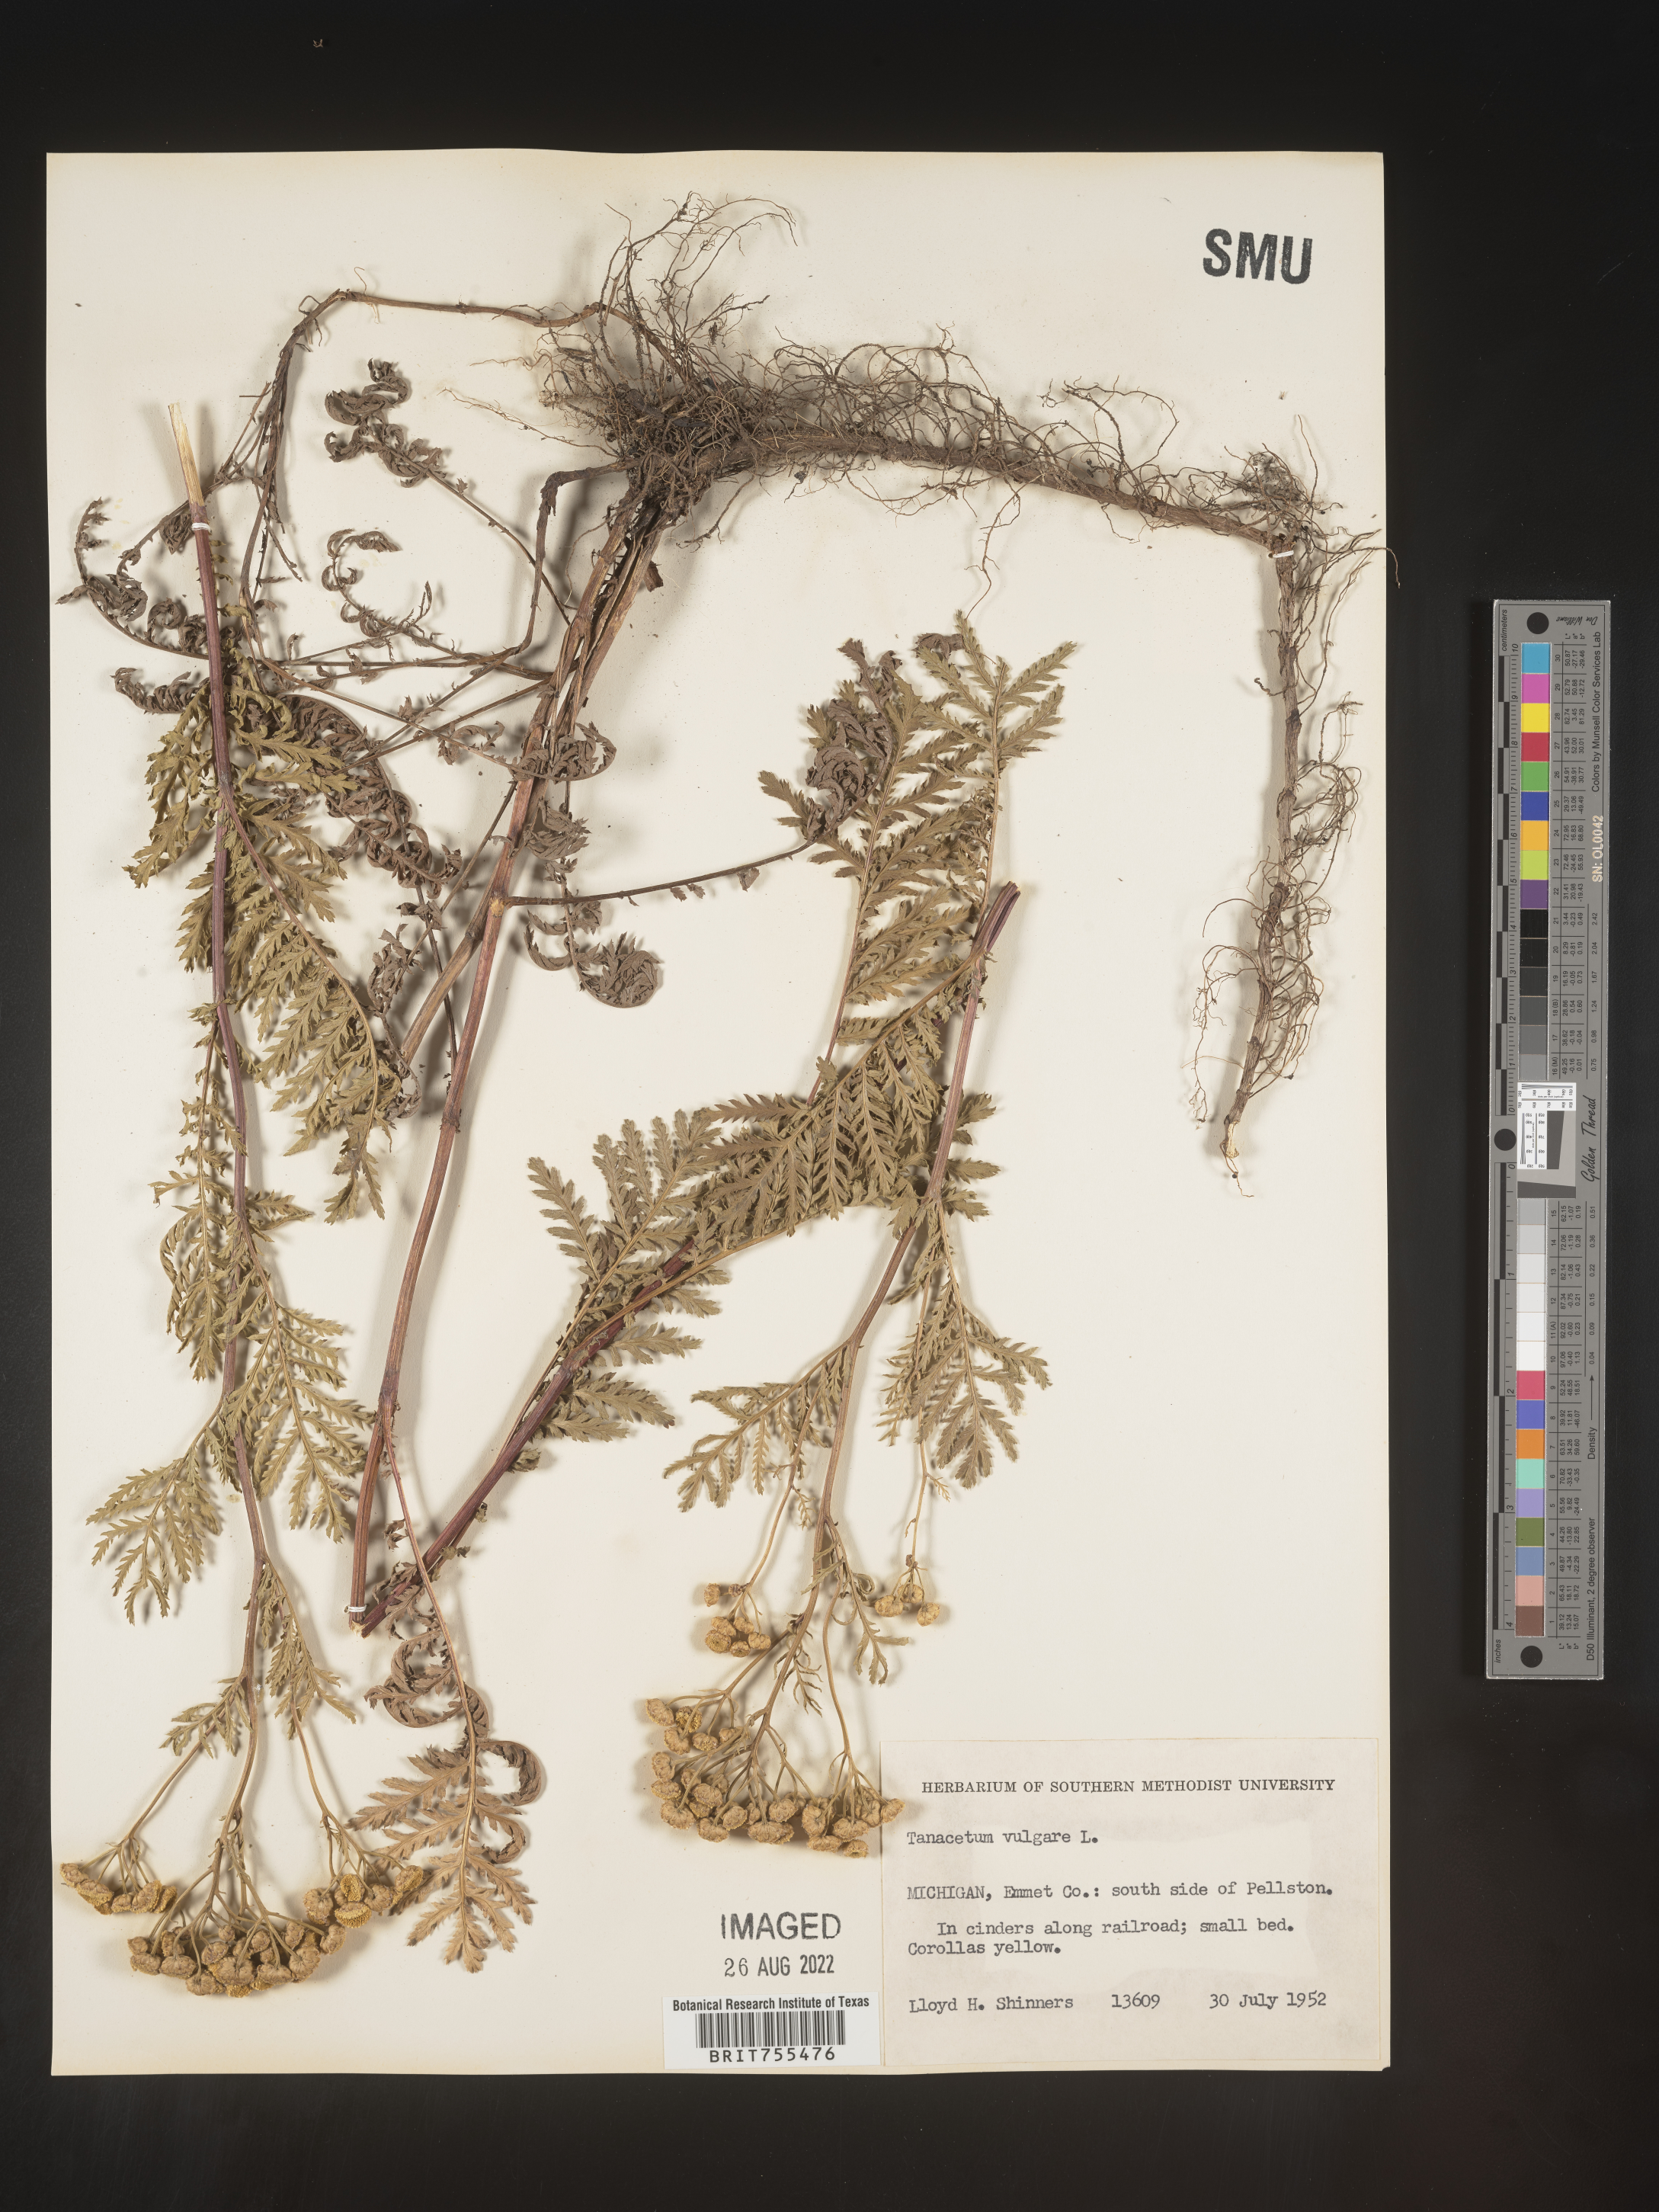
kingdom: Plantae
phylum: Tracheophyta
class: Magnoliopsida
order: Asterales
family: Asteraceae
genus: Tanacetum
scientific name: Tanacetum vulgare
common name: Common tansy
